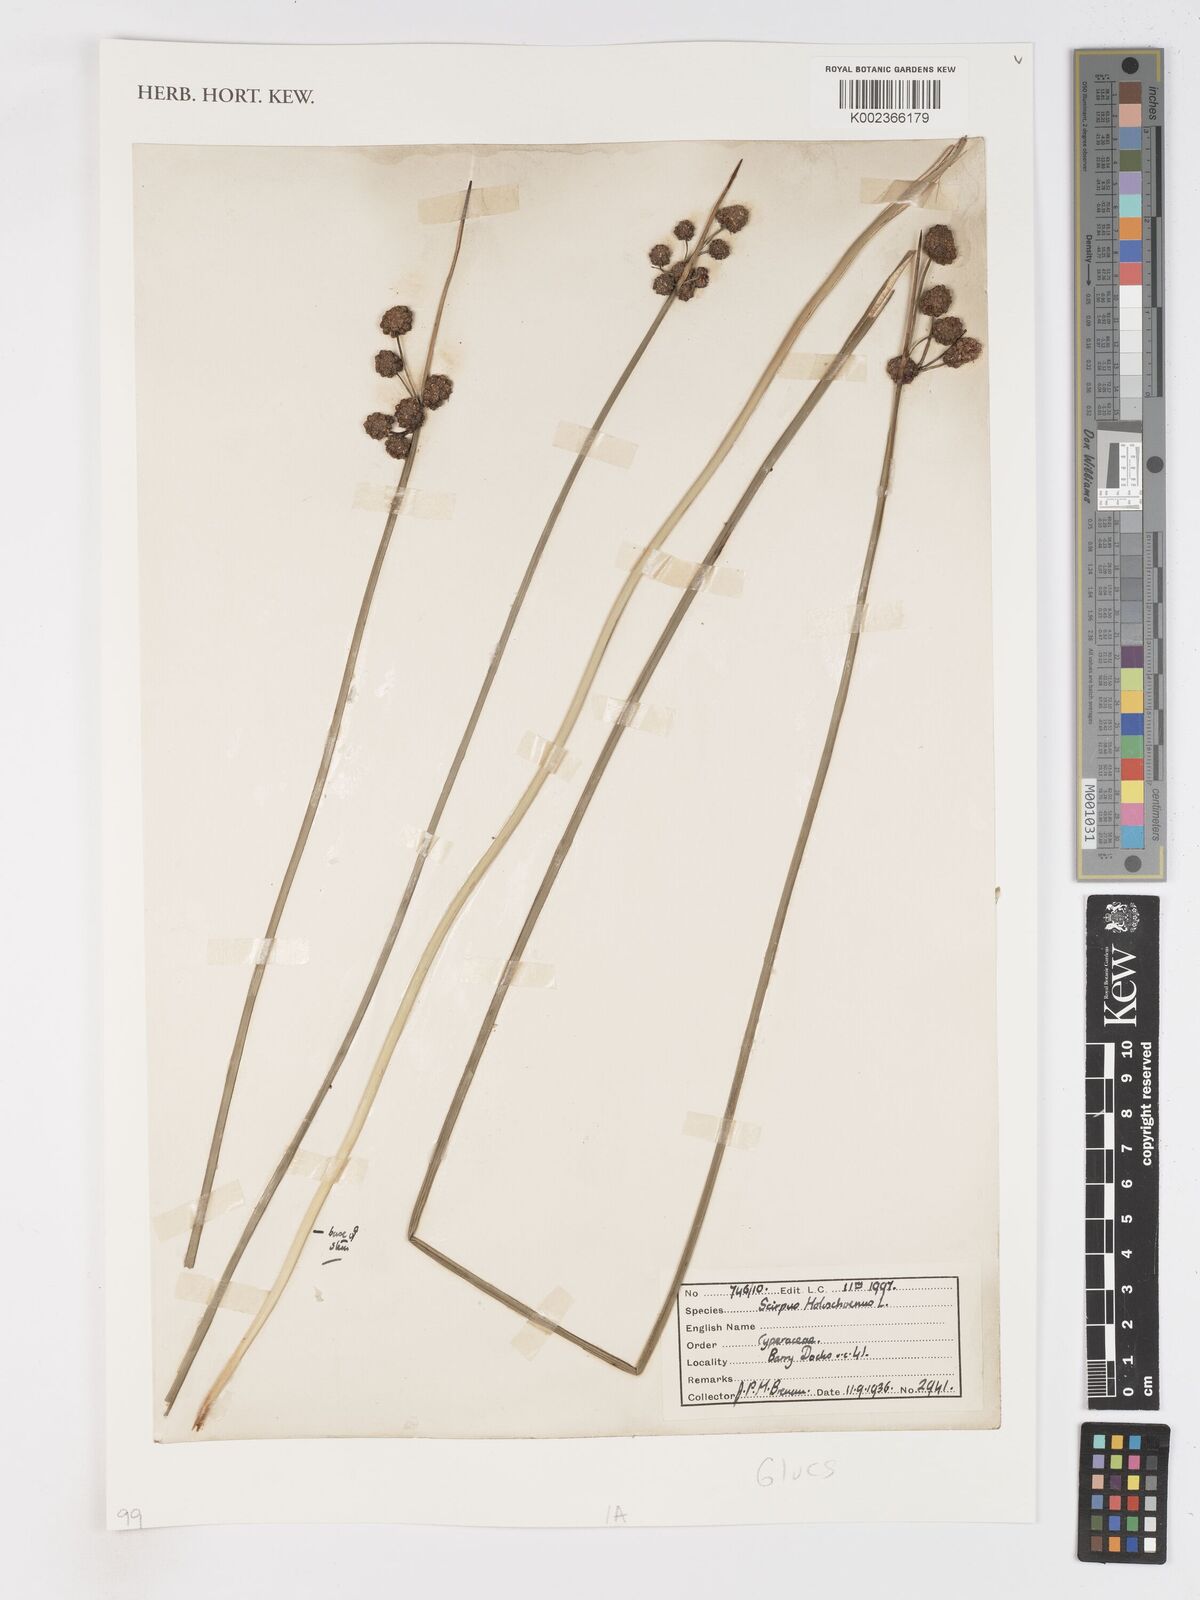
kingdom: Plantae
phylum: Tracheophyta
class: Liliopsida
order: Poales
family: Cyperaceae
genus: Scirpoides
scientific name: Scirpoides holoschoenus
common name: Round-headed club-rush
